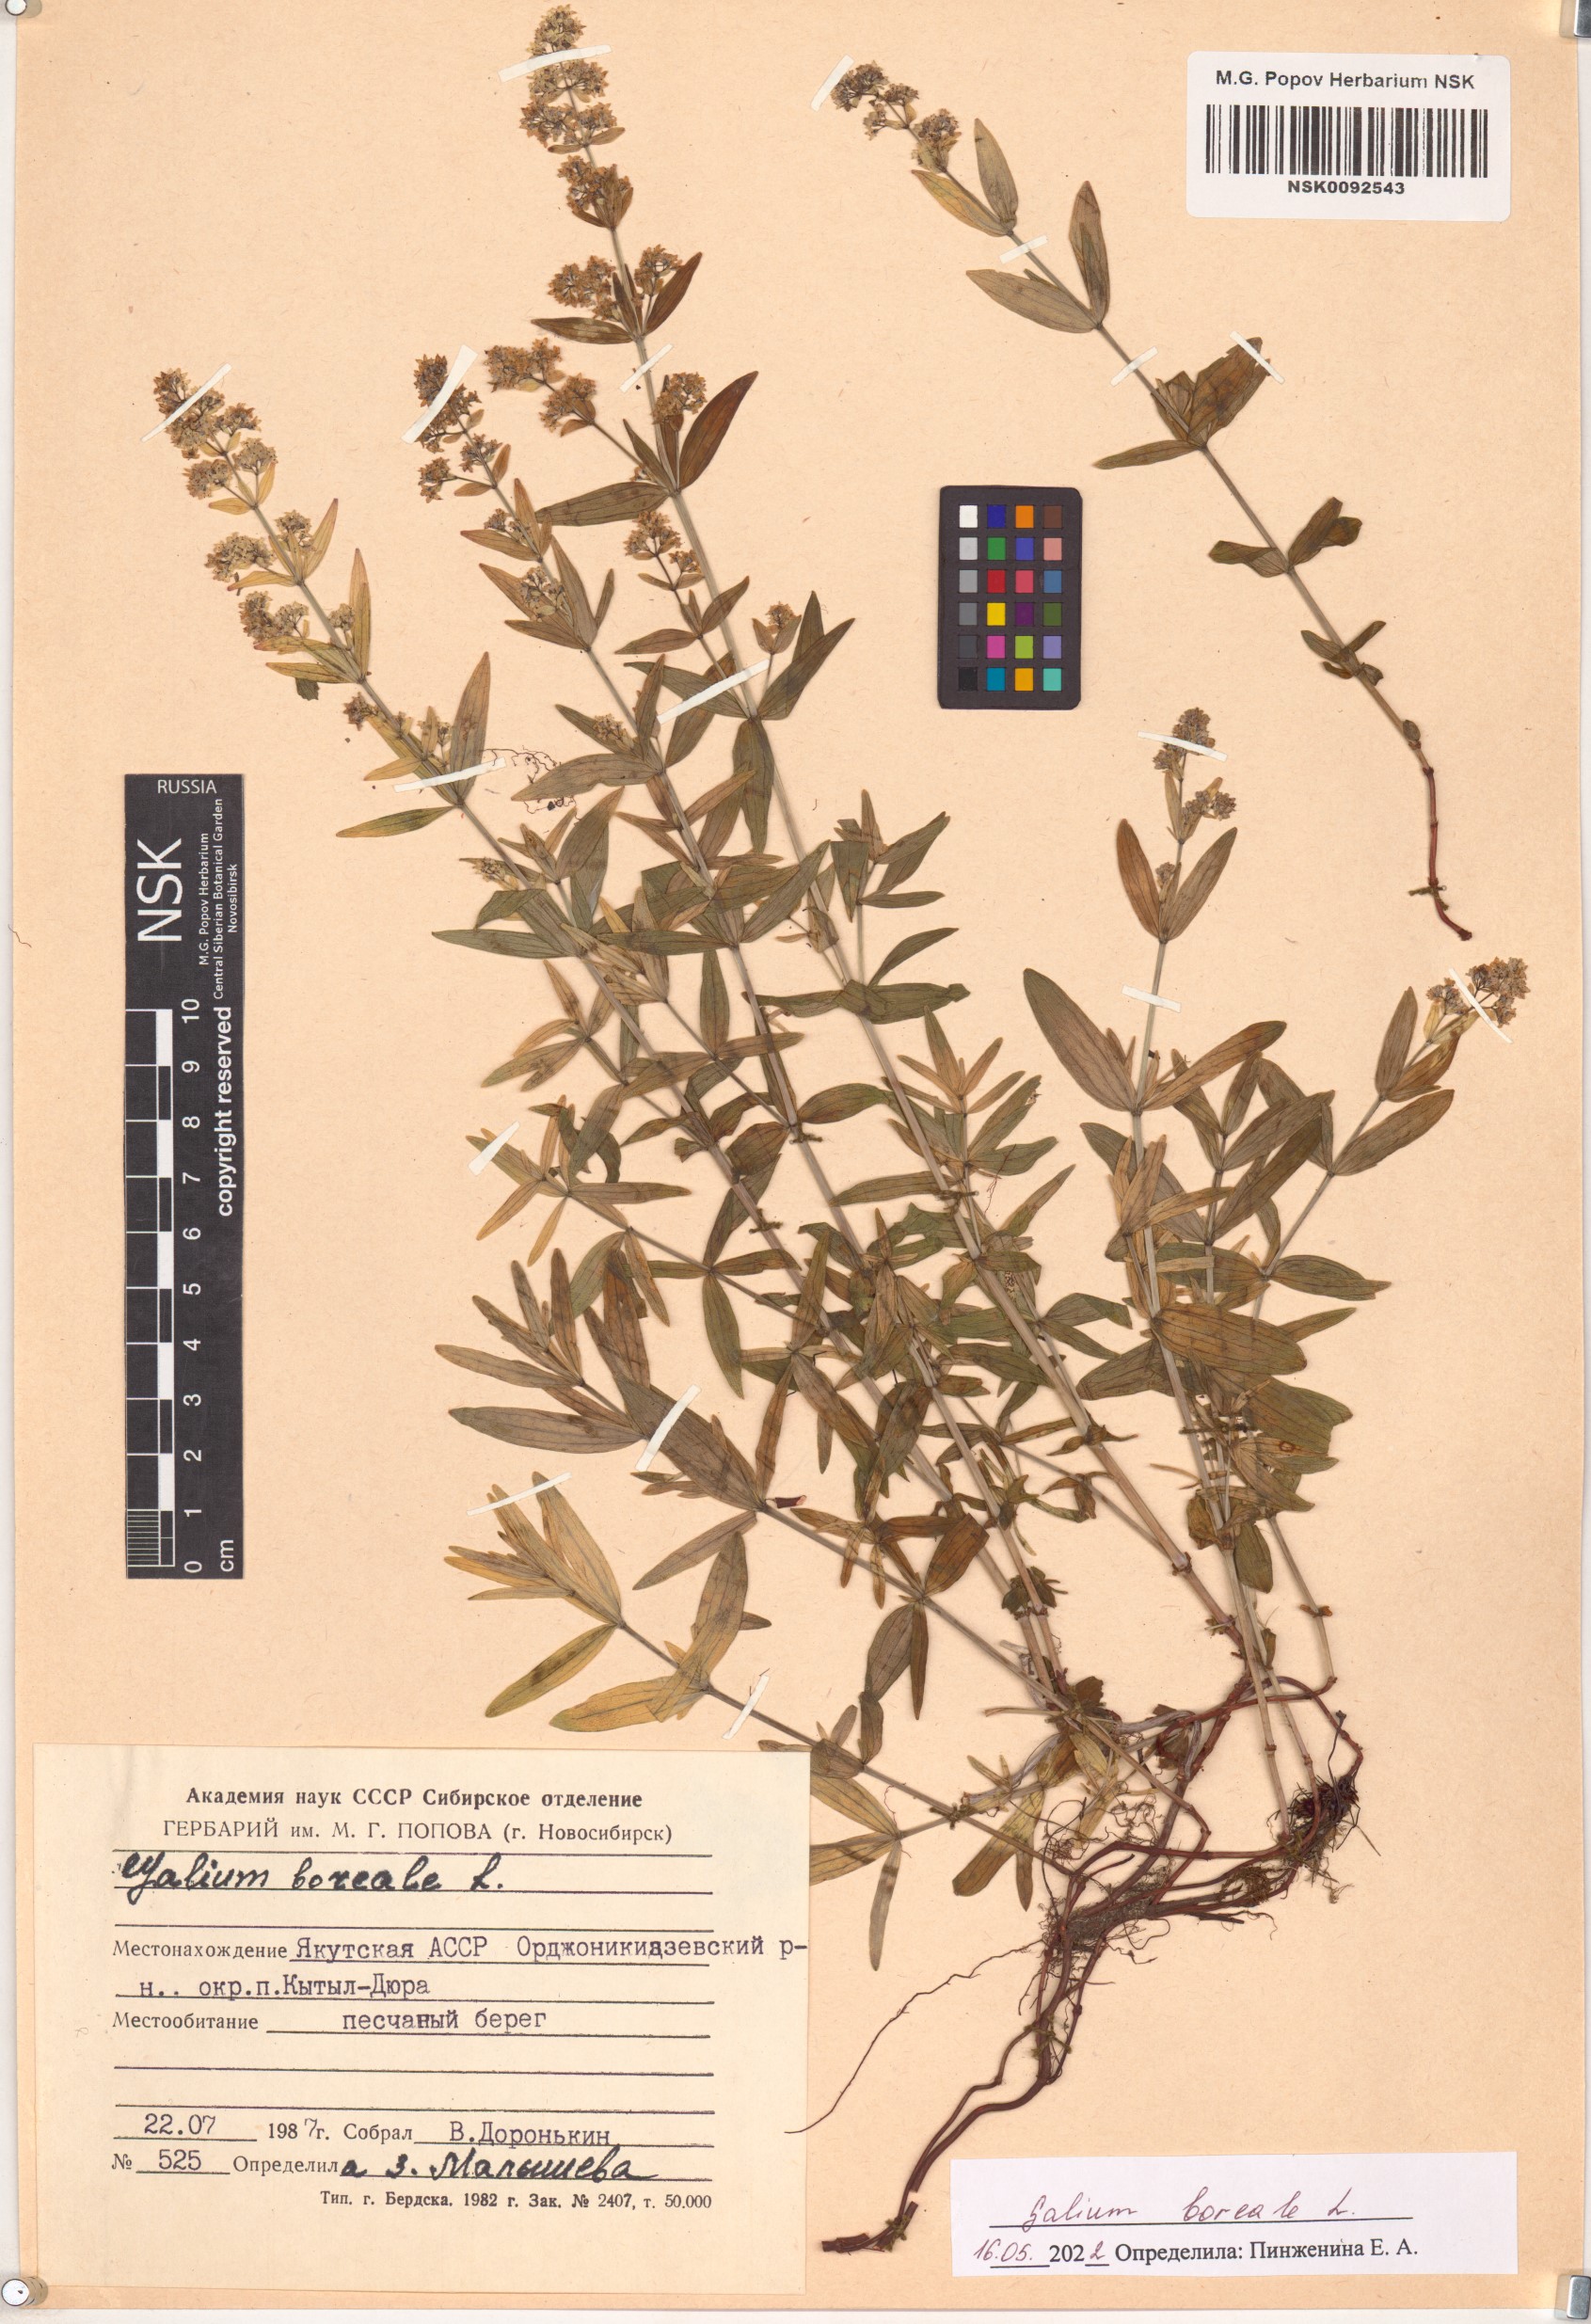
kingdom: Plantae
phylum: Tracheophyta
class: Magnoliopsida
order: Gentianales
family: Rubiaceae
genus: Galium
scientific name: Galium boreale
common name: Northern bedstraw
